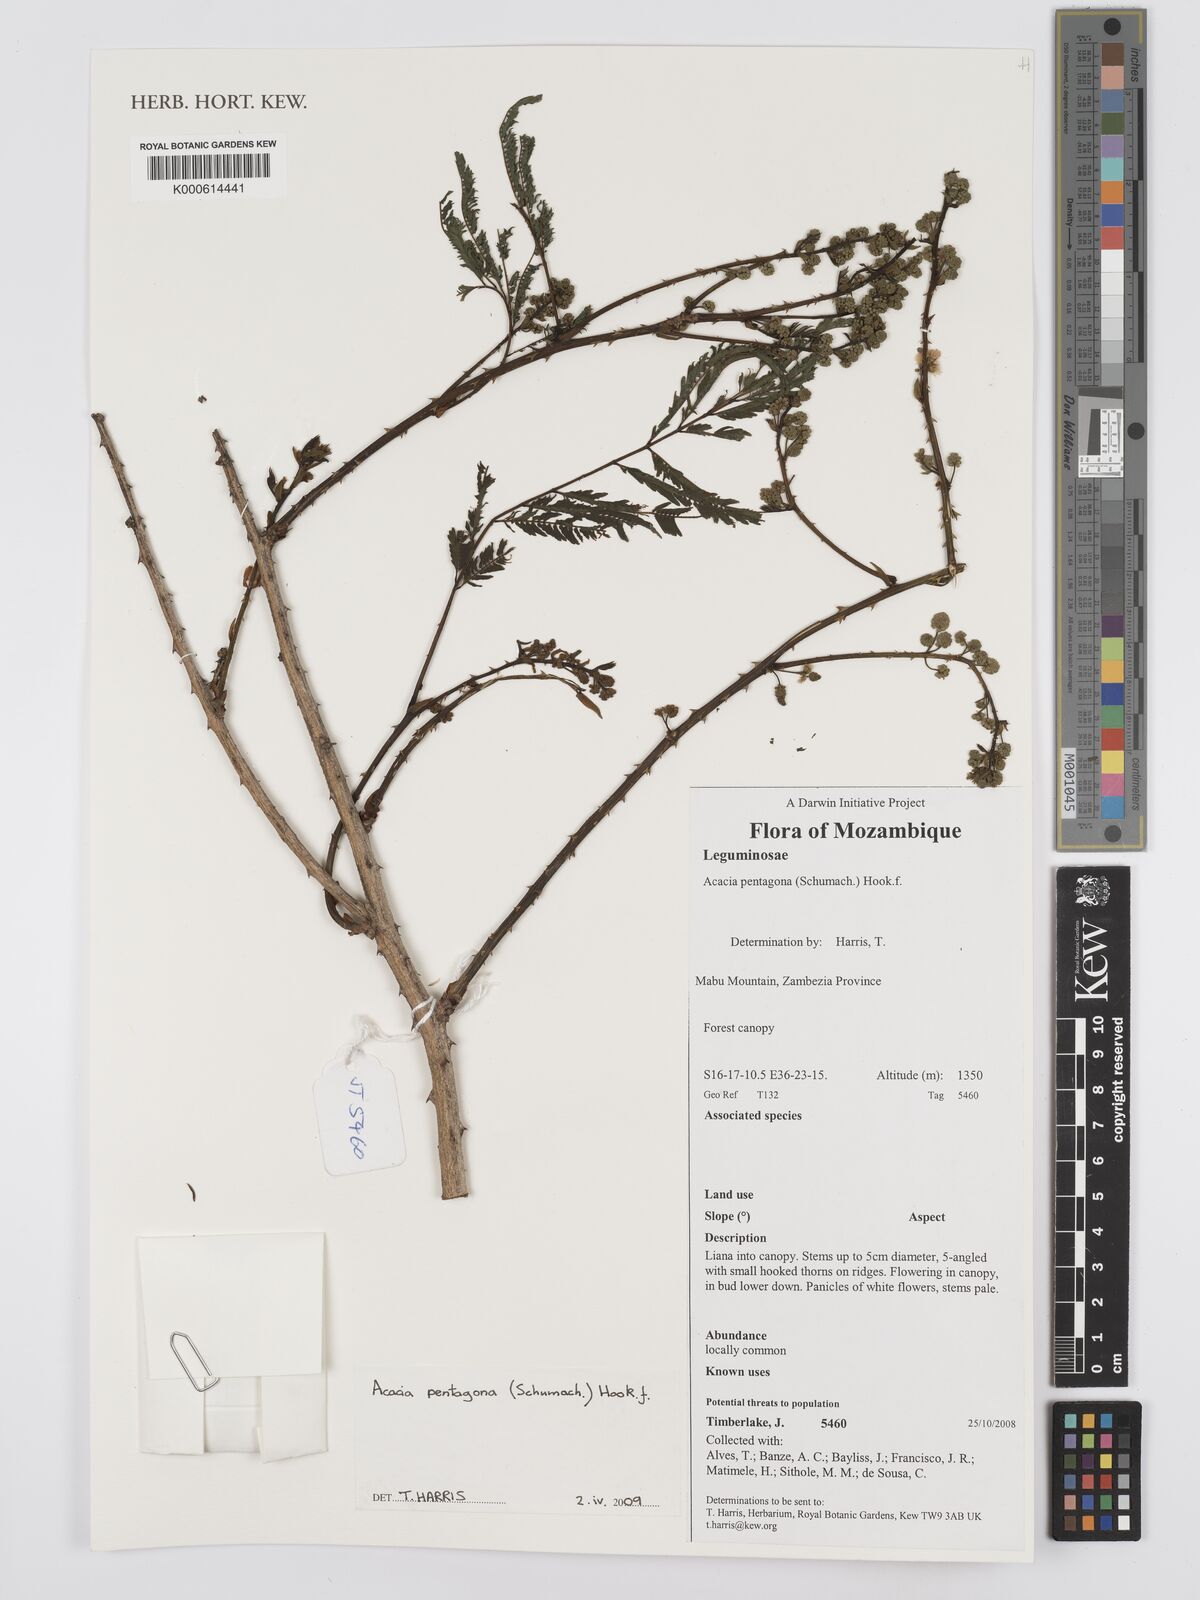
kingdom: Plantae
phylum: Tracheophyta
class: Magnoliopsida
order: Fabales
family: Fabaceae
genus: Senegalia
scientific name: Senegalia pentagona
